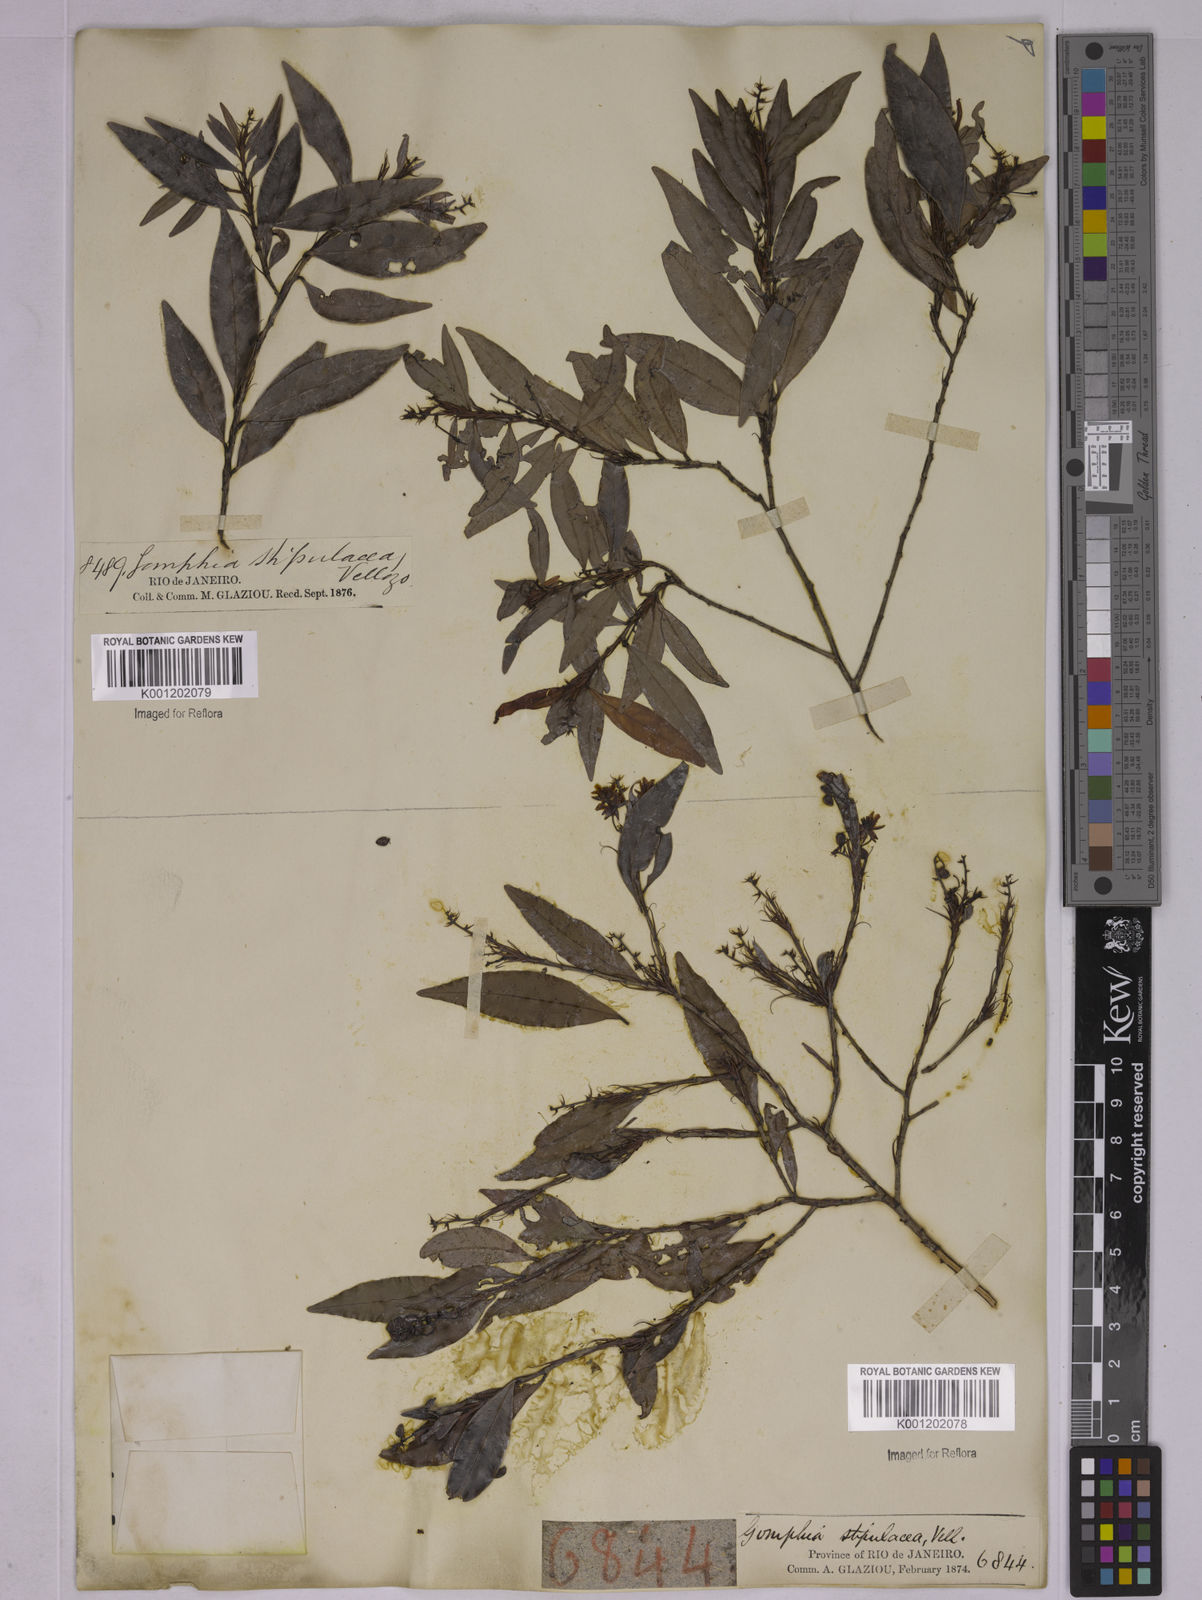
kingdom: Plantae
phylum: Tracheophyta
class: Magnoliopsida
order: Malpighiales
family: Ochnaceae
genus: Ouratea
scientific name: Ouratea stipulata
